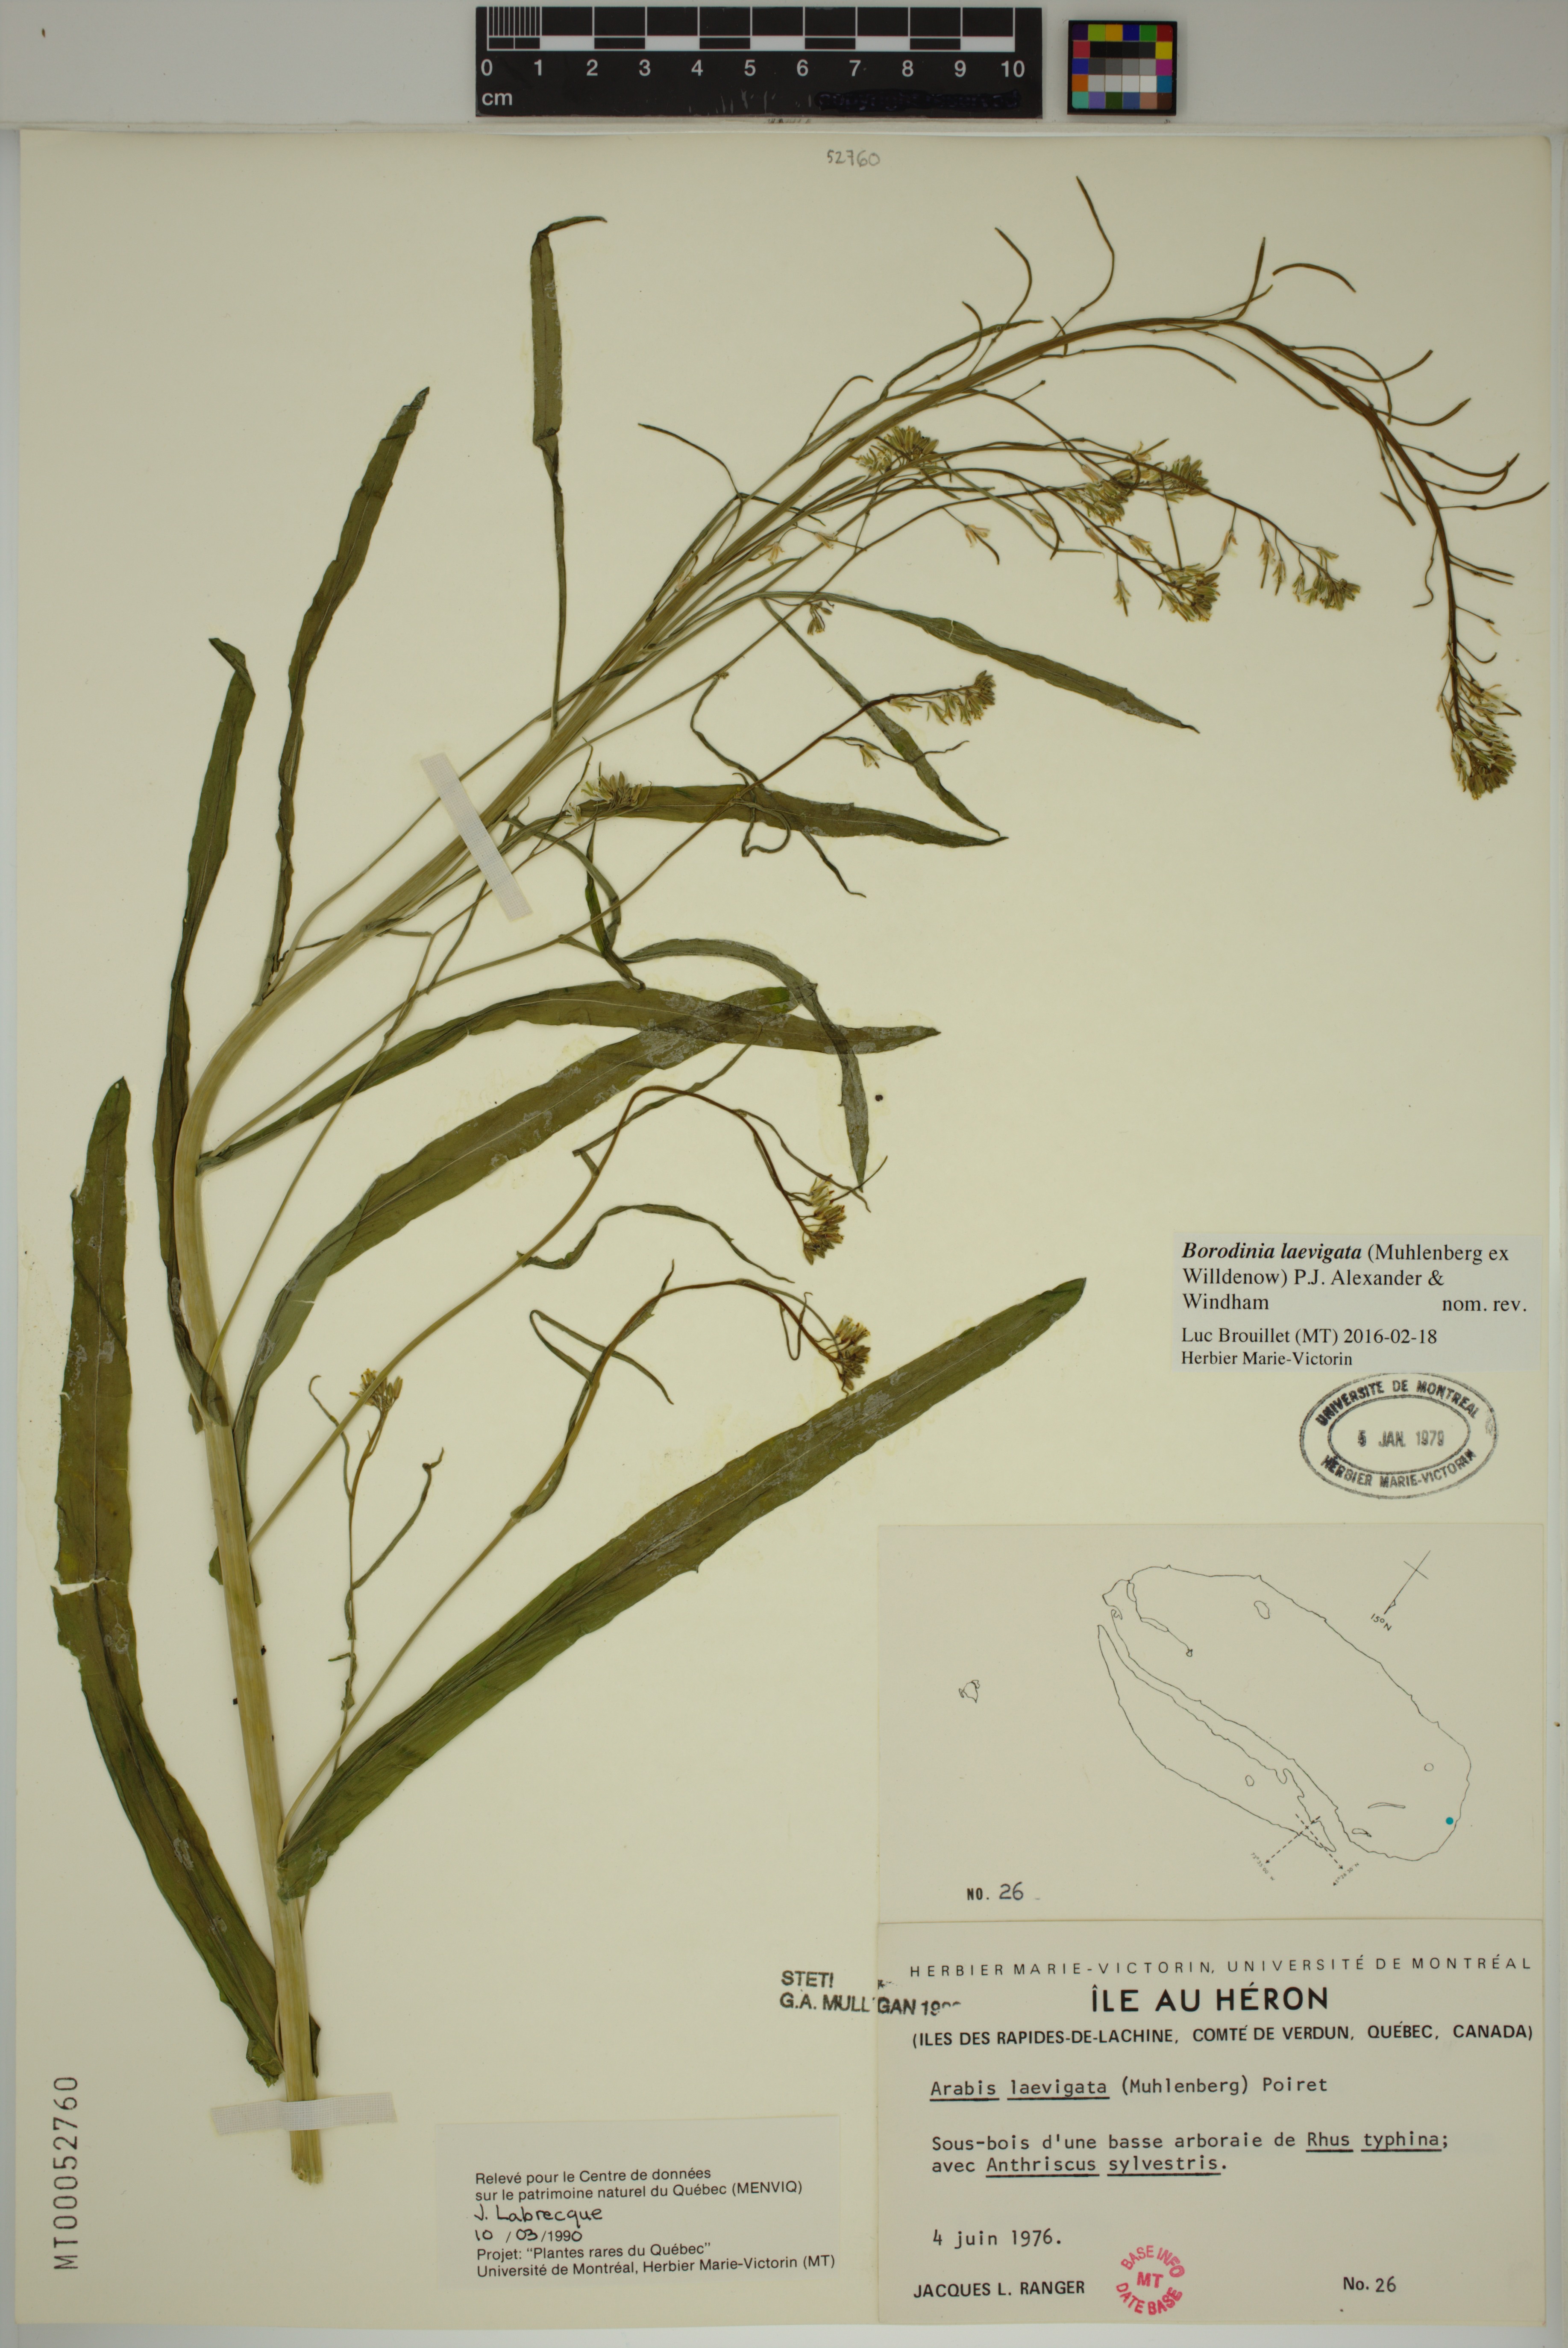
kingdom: Plantae
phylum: Tracheophyta
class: Magnoliopsida
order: Brassicales
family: Brassicaceae
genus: Borodinia
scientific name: Borodinia laevigata
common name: Smooth rockcress
